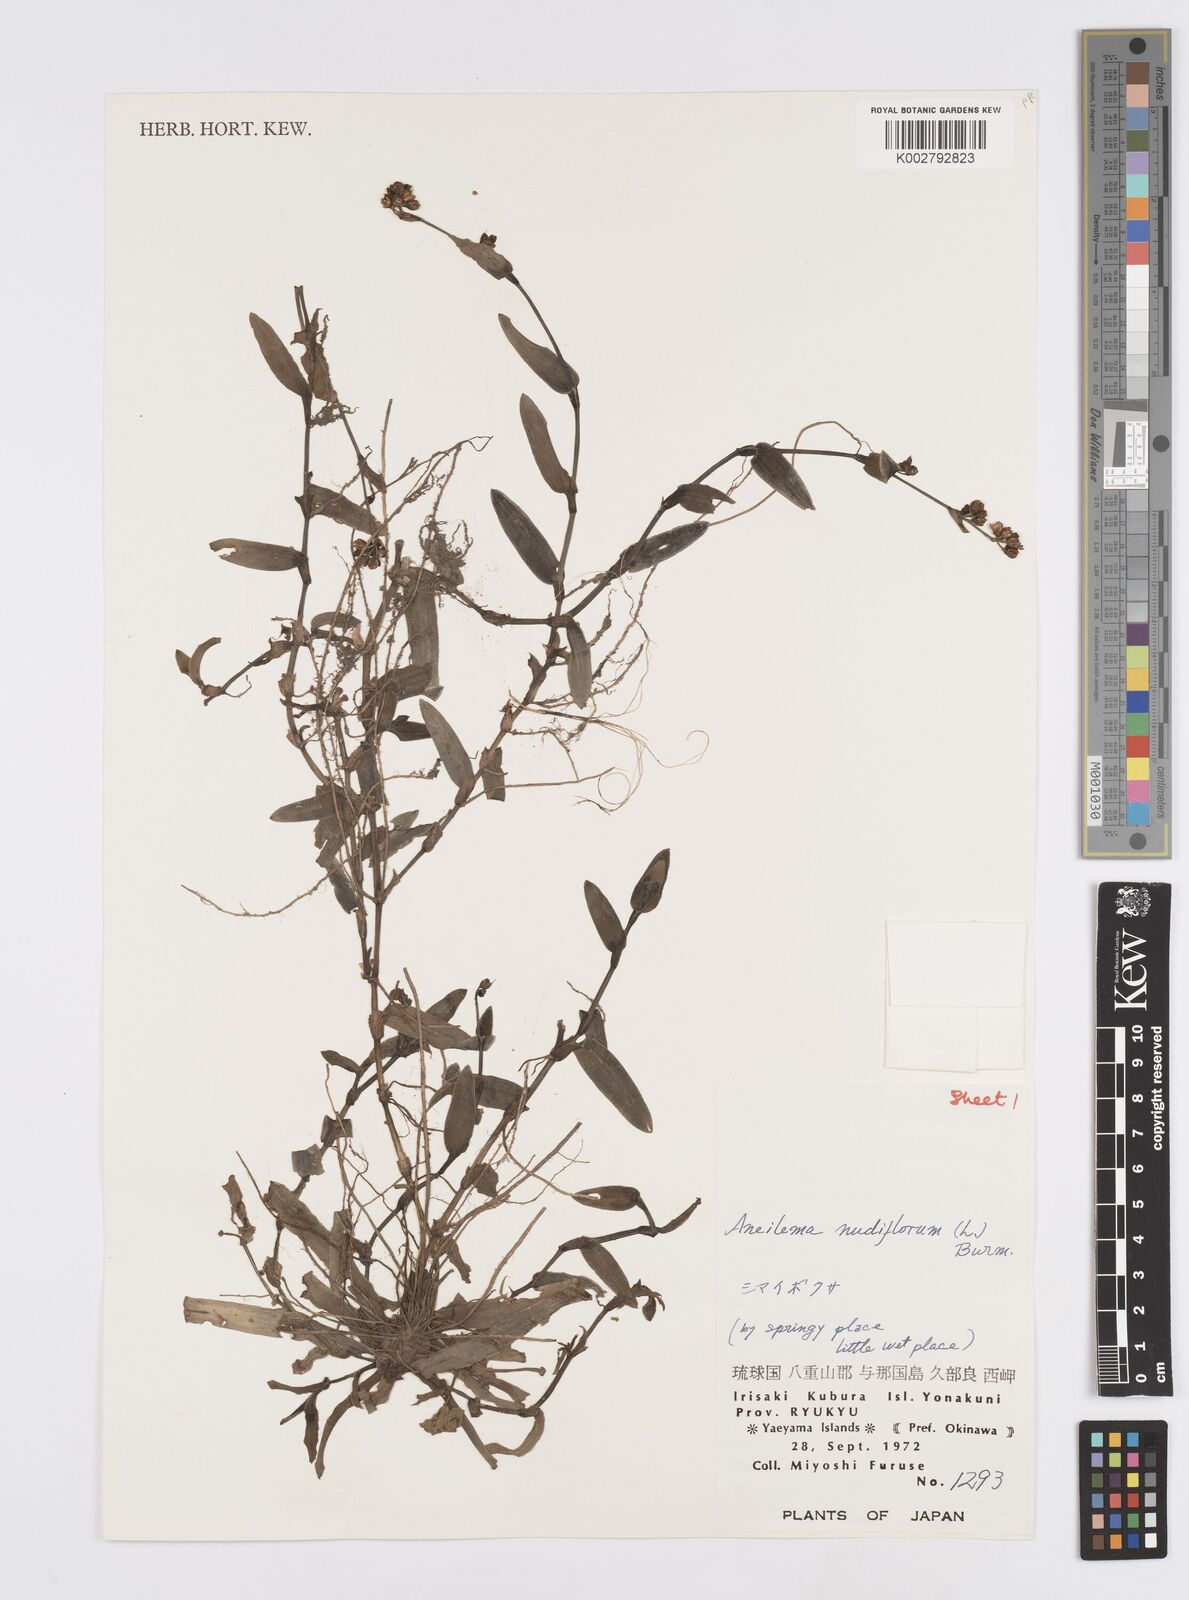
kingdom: Plantae
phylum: Tracheophyta
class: Liliopsida
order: Commelinales
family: Commelinaceae
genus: Murdannia
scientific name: Murdannia nudiflora
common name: Nakedstem dewflower
